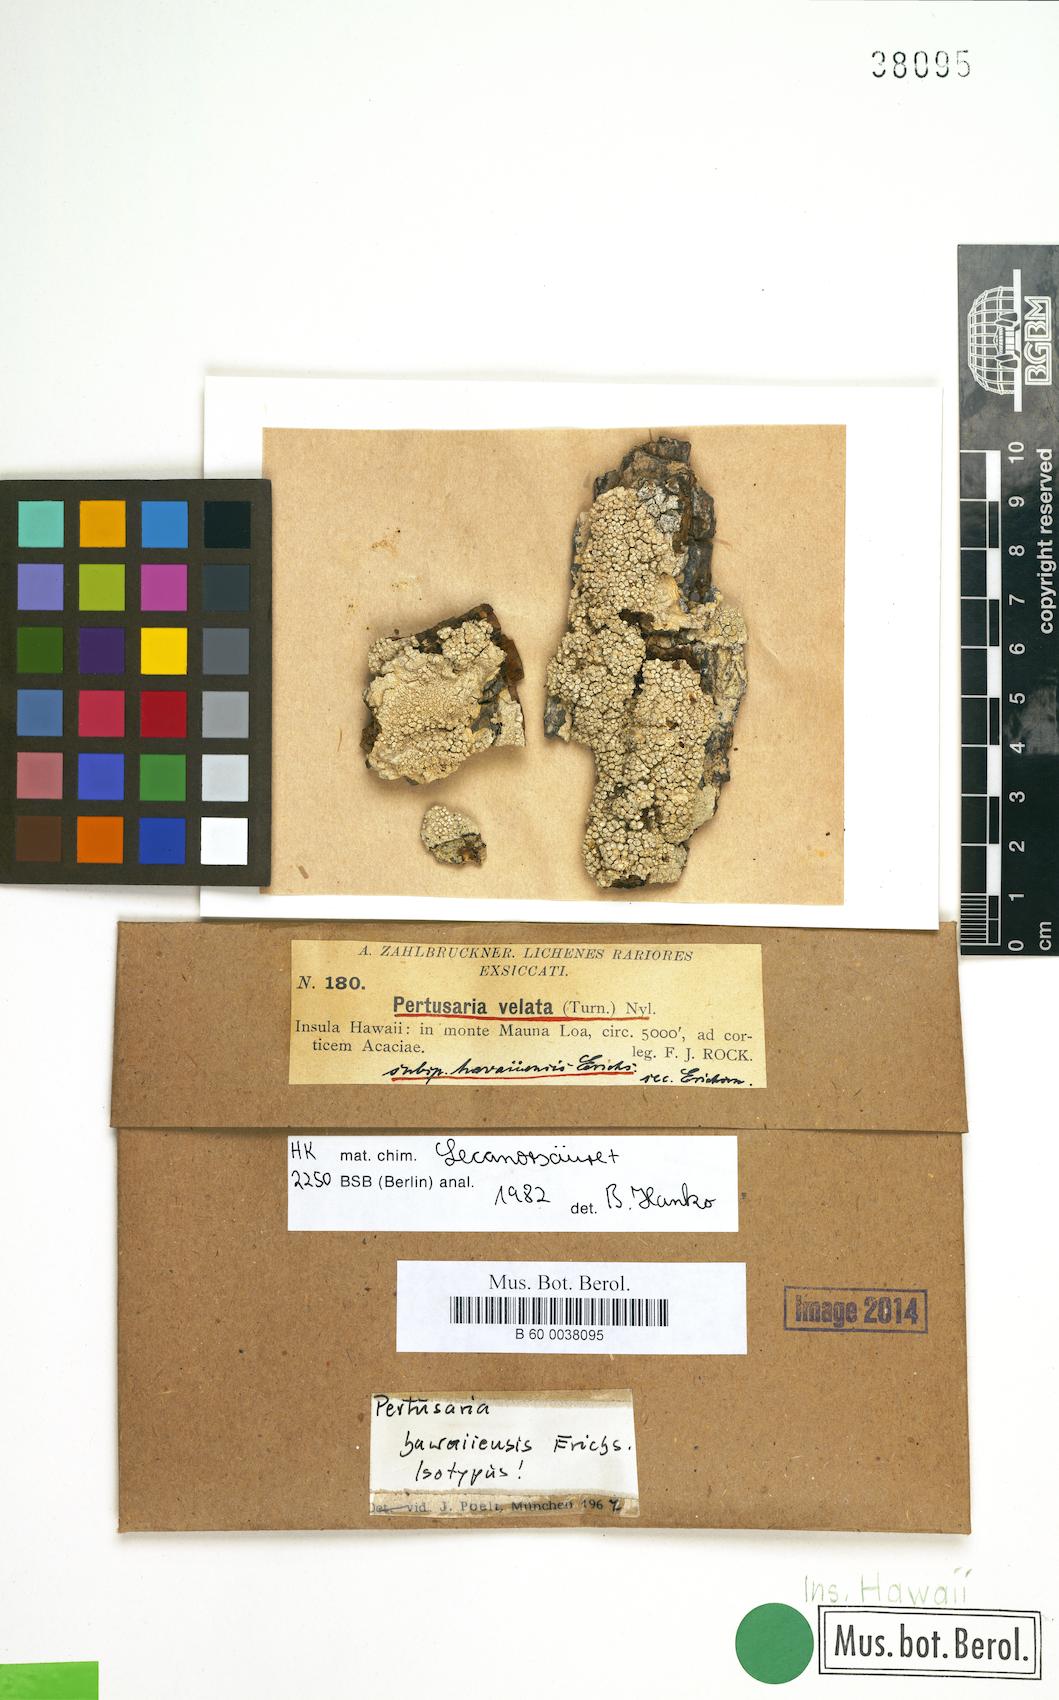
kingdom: Fungi
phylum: Ascomycota
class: Lecanoromycetes
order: Pertusariales
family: Pertusariaceae
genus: Pertusaria
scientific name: Pertusaria havaiiensis
